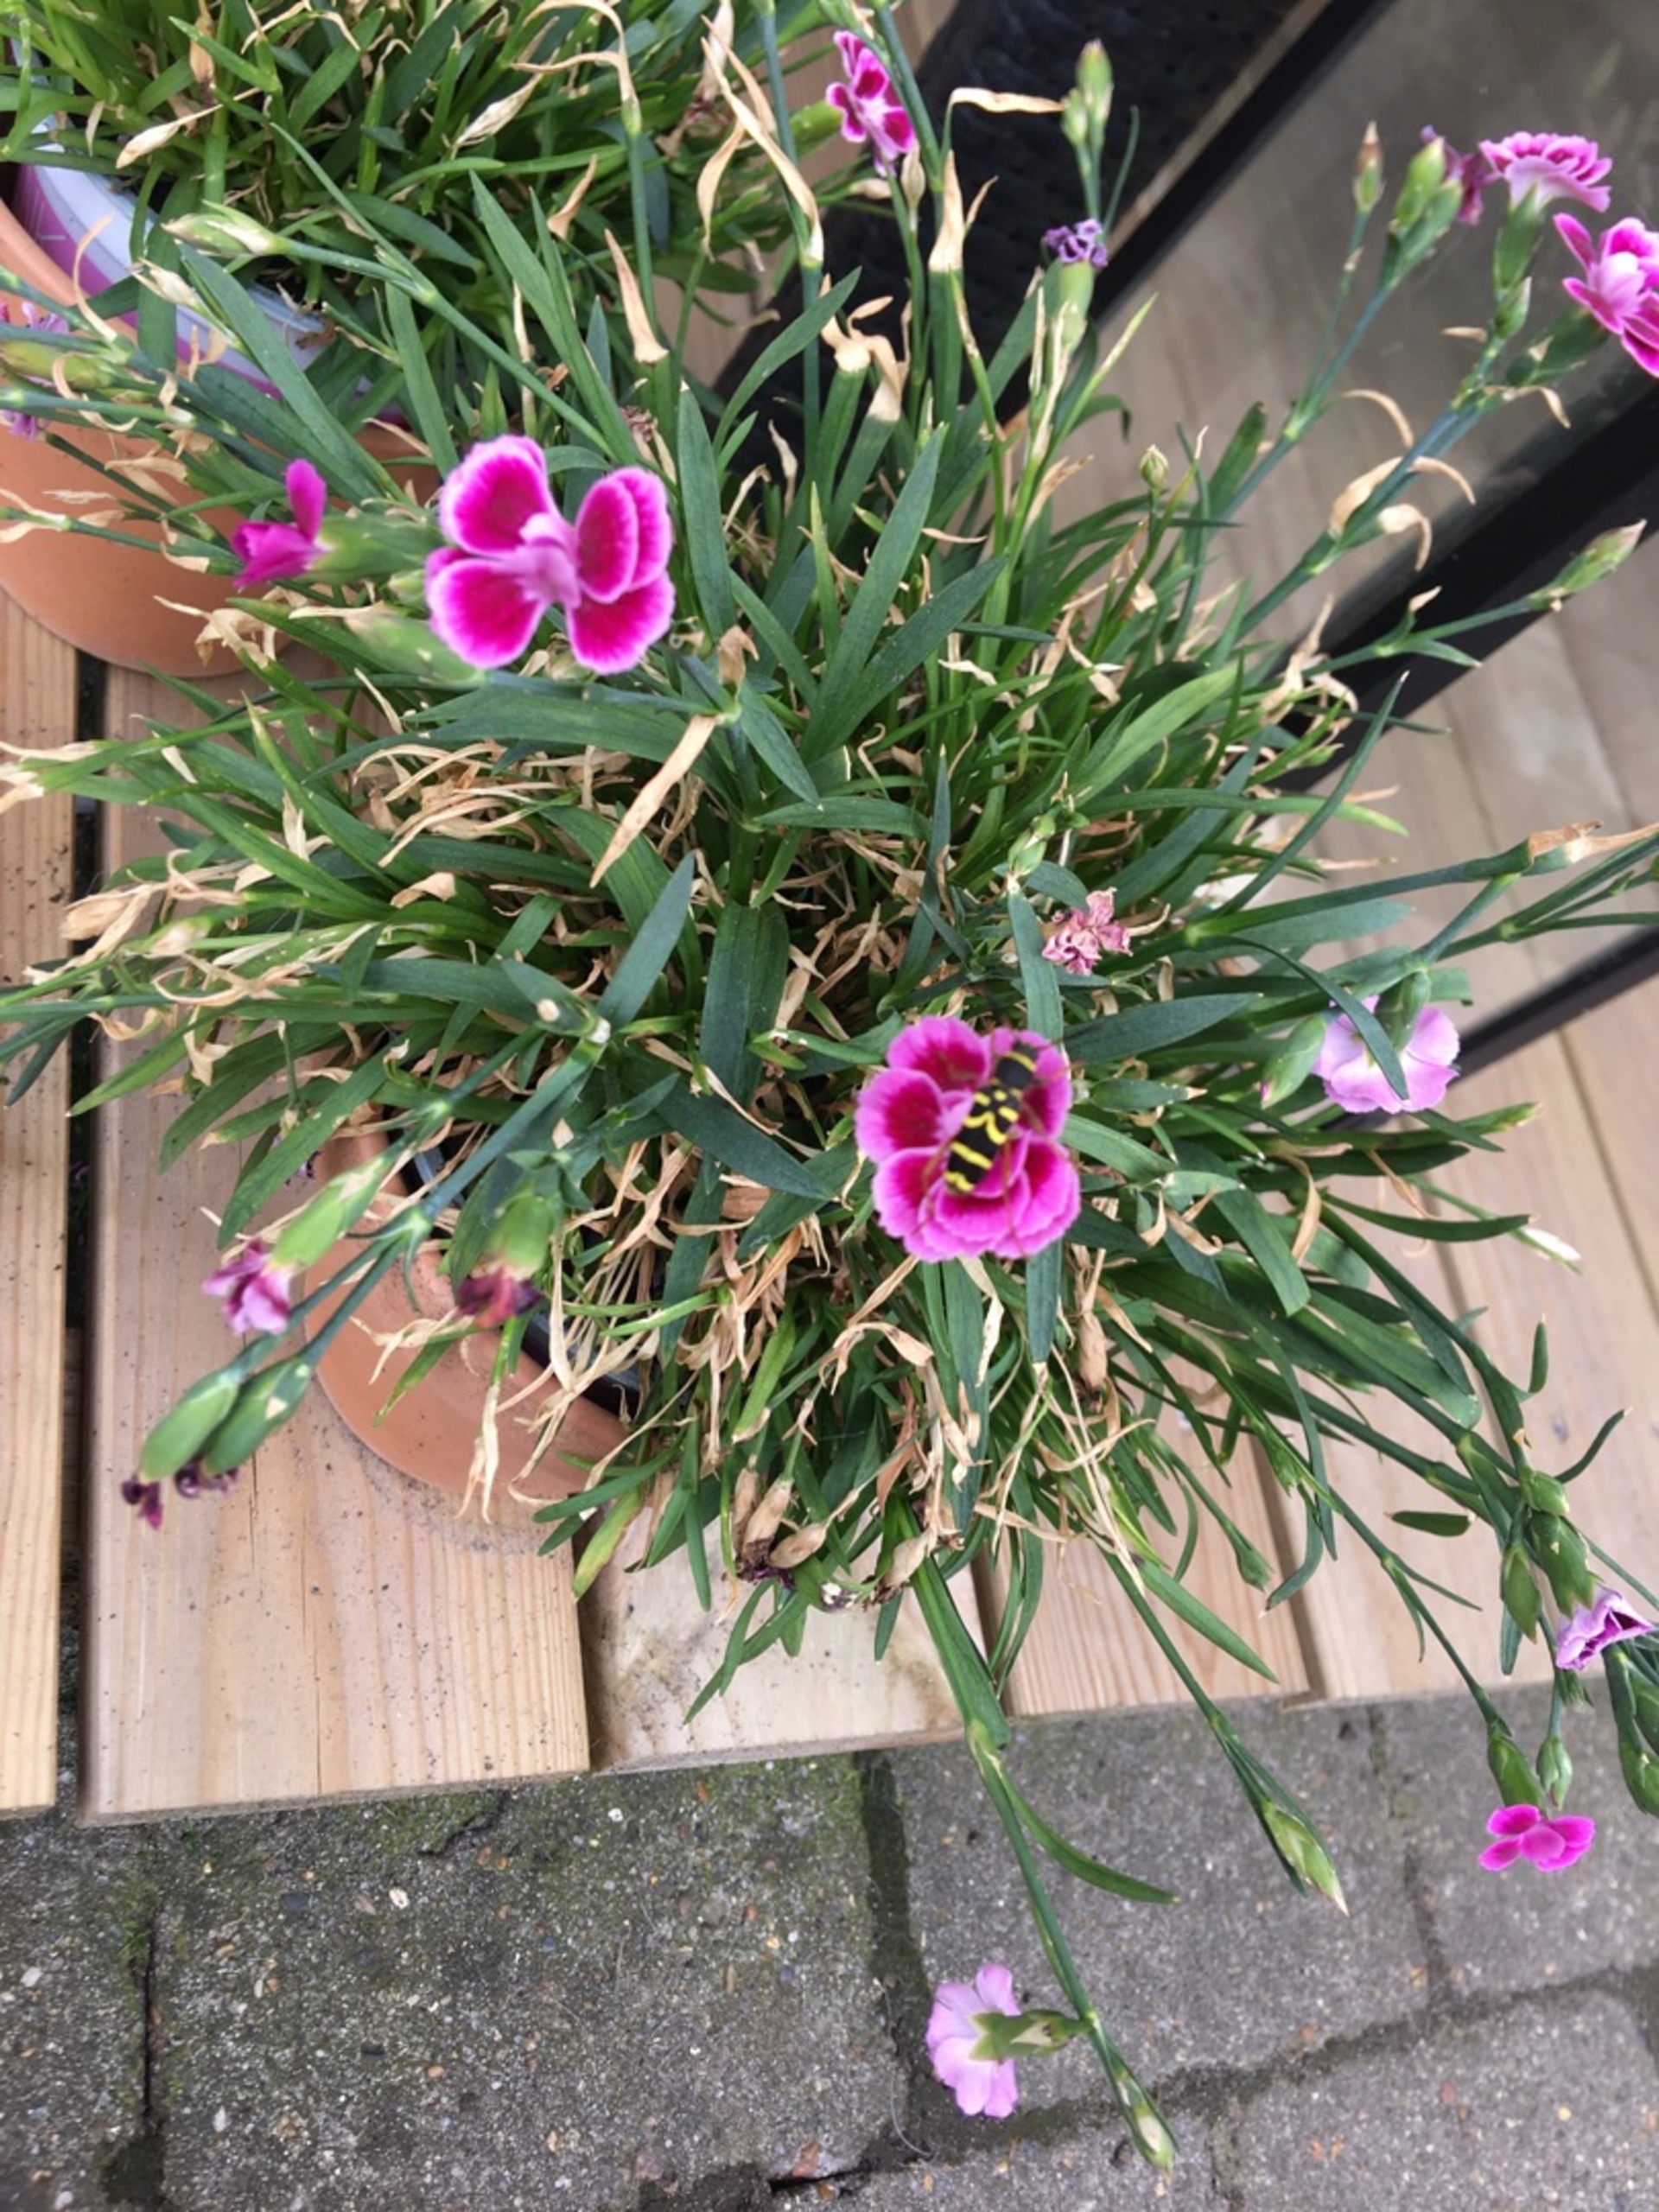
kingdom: Animalia
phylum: Arthropoda
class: Insecta
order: Coleoptera
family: Cerambycidae
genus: Clytus
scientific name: Clytus arietis
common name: Lille hvepsebuk
